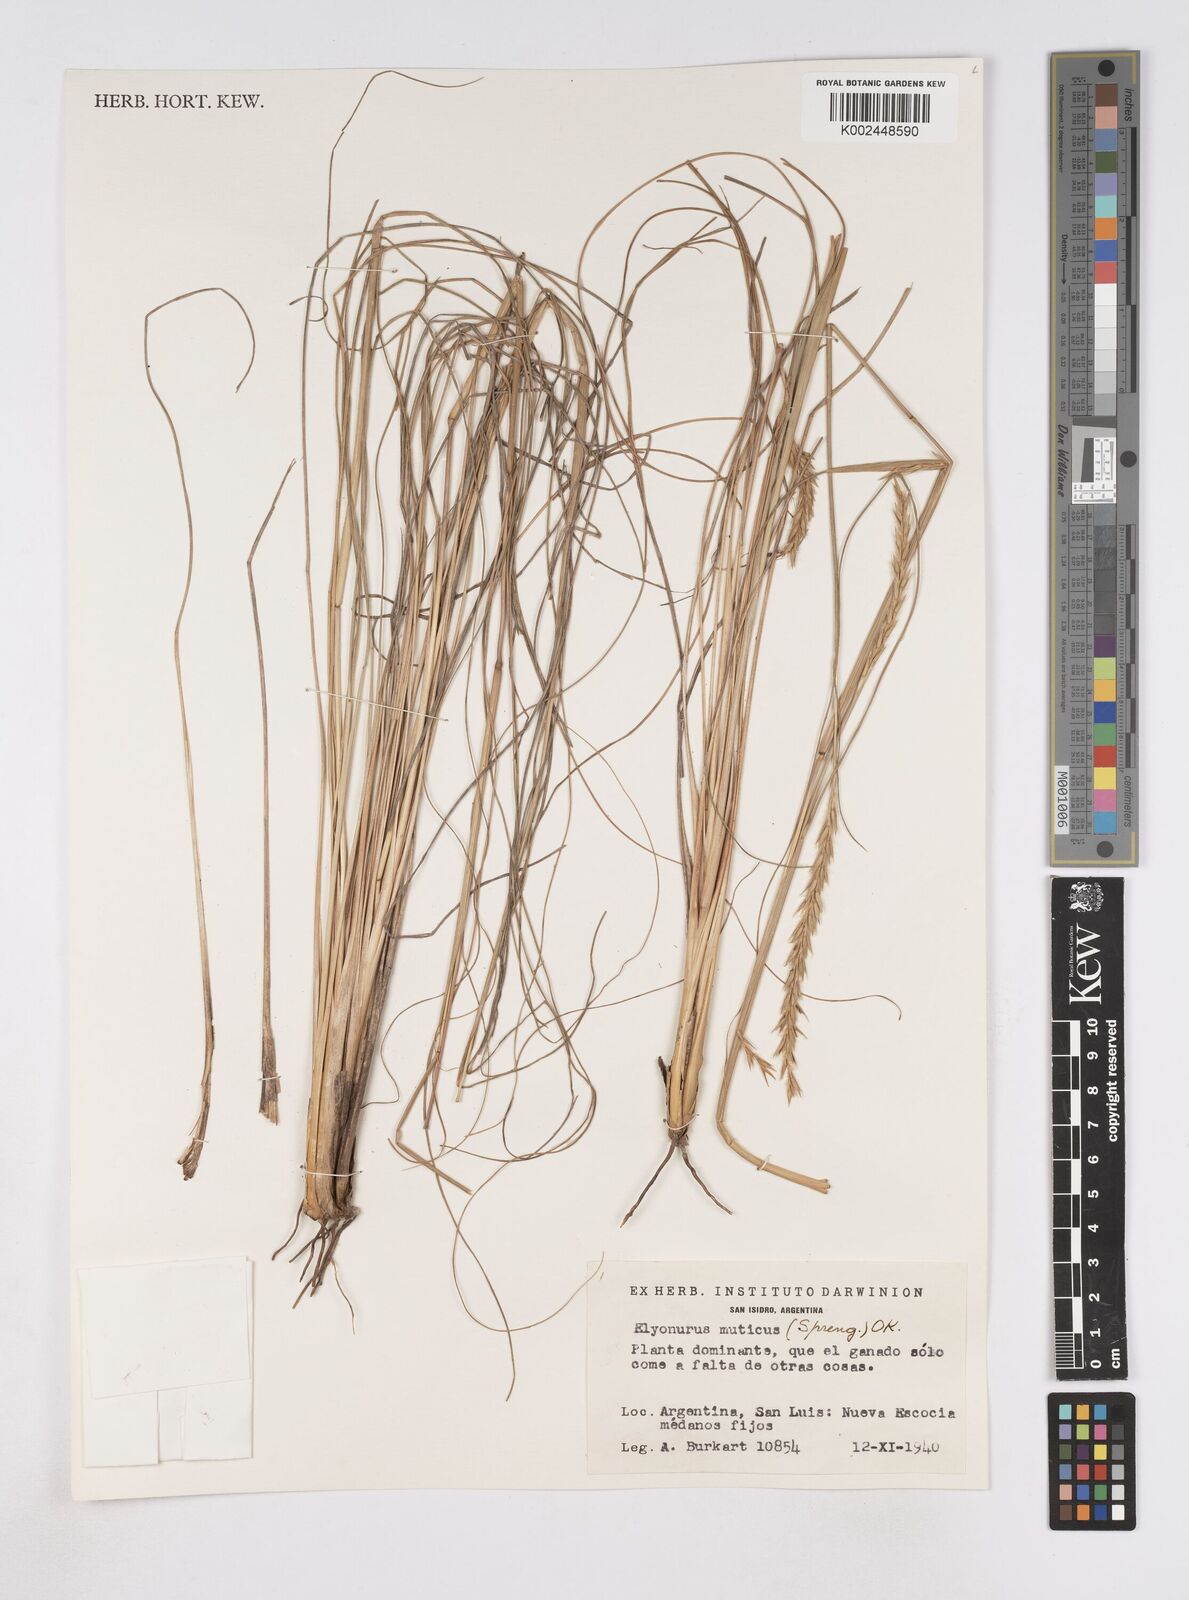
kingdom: Plantae
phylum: Tracheophyta
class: Liliopsida
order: Poales
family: Poaceae
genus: Elionurus
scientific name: Elionurus muticus
